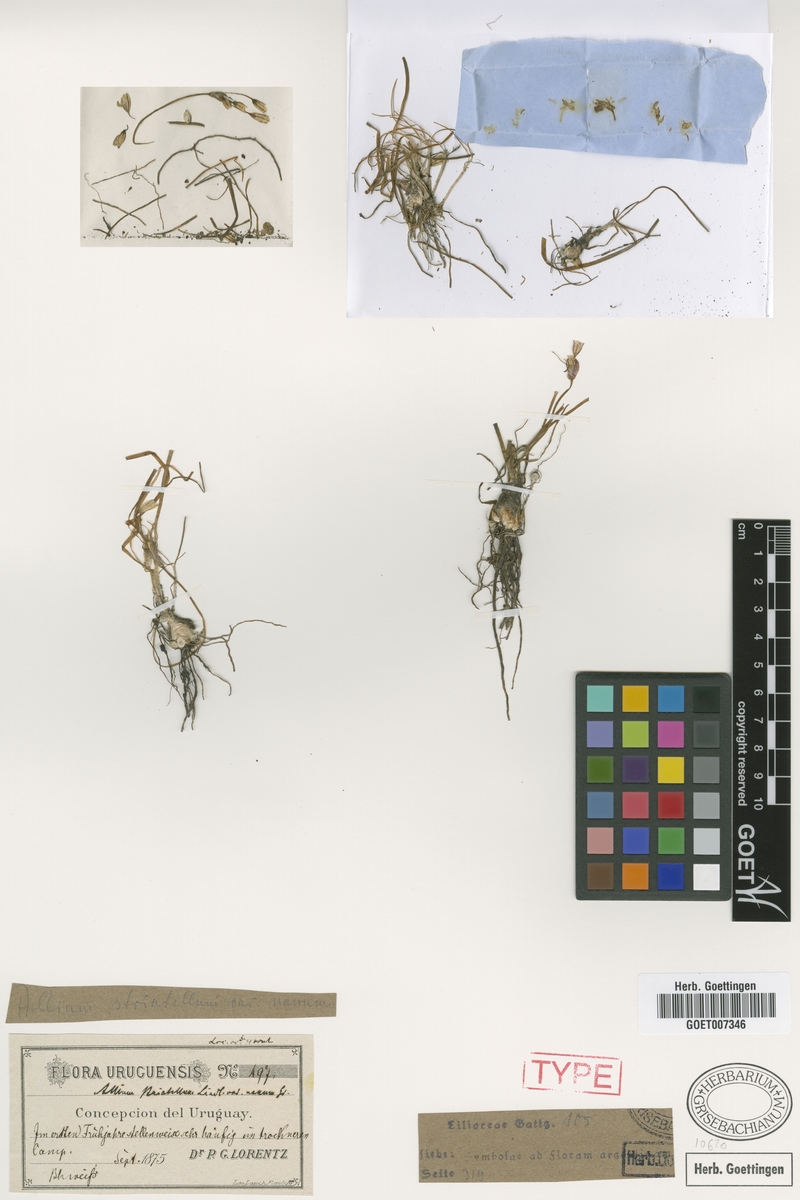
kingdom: Plantae
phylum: Tracheophyta
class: Liliopsida
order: Asparagales
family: Amaryllidaceae
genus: Nothoscordum
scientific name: Nothoscordum bivalve
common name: Crow-poison
